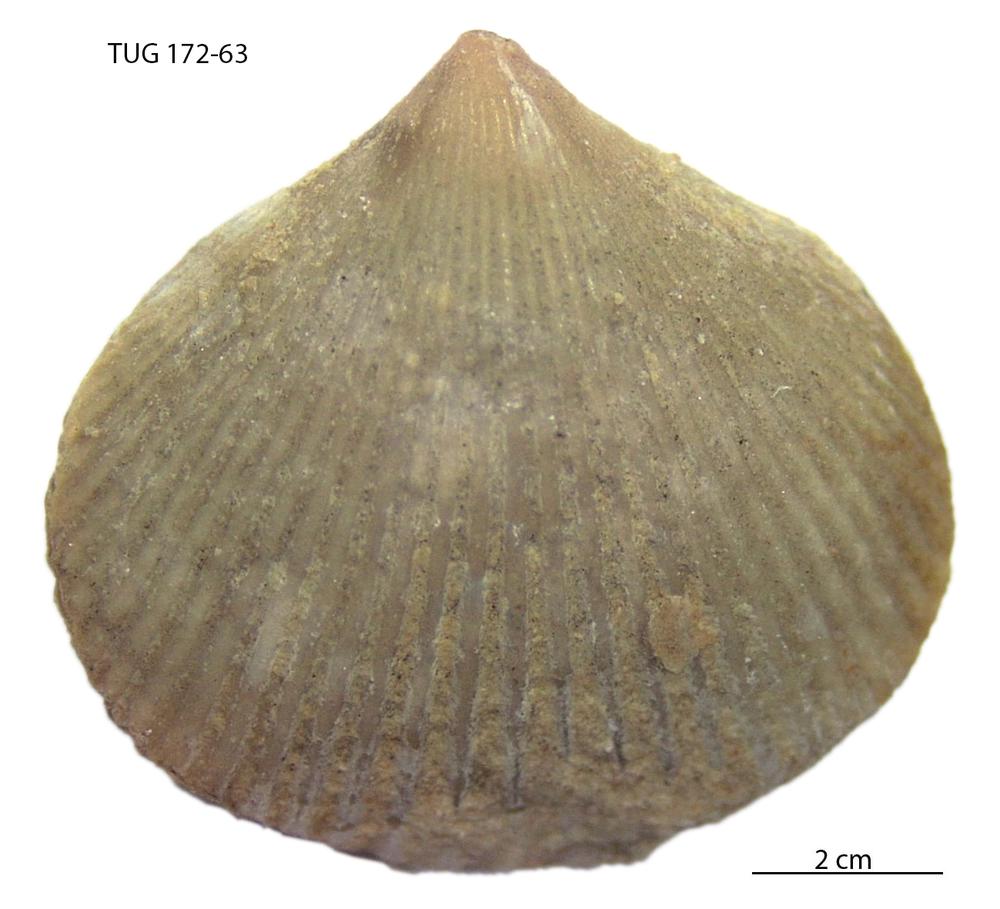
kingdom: Animalia
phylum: Brachiopoda
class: Rhynchonellata
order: Terebratulida
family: Terebratulidae
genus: Terebratula
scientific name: Terebratula livonica
